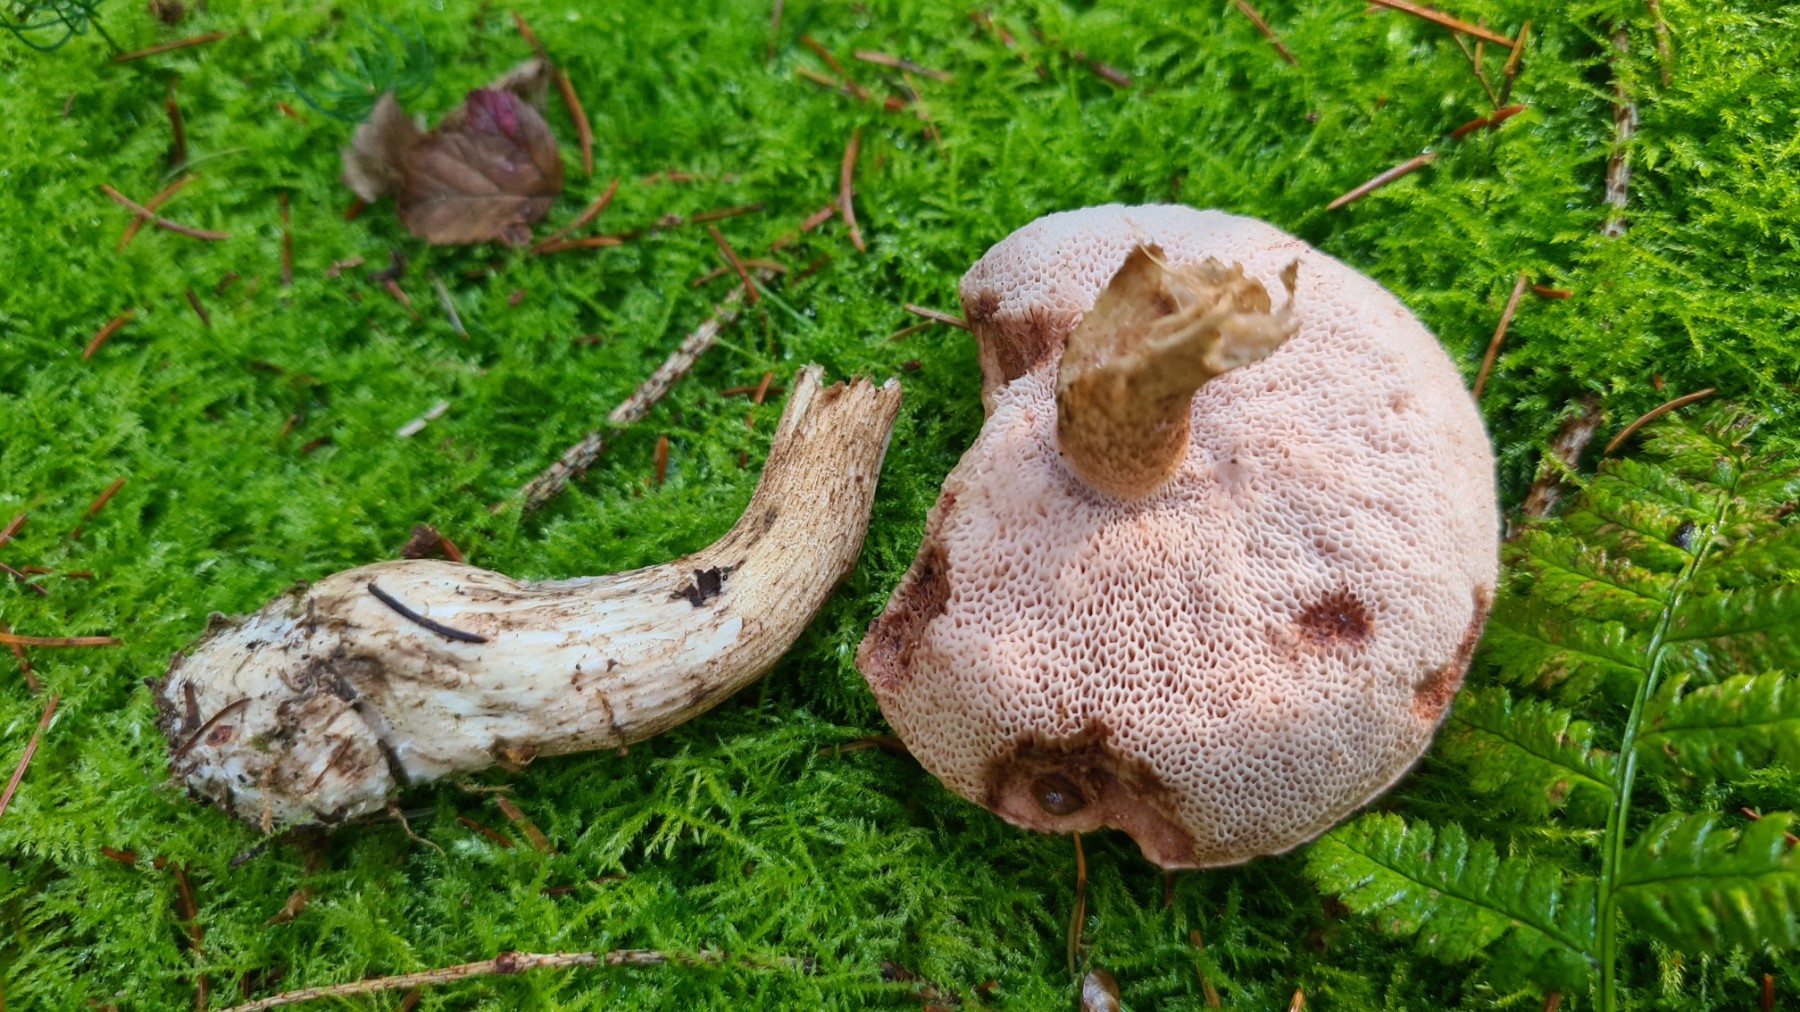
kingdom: Fungi
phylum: Basidiomycota
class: Agaricomycetes
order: Boletales
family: Boletaceae
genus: Tylopilus
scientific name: Tylopilus felleus
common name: galderørhat
